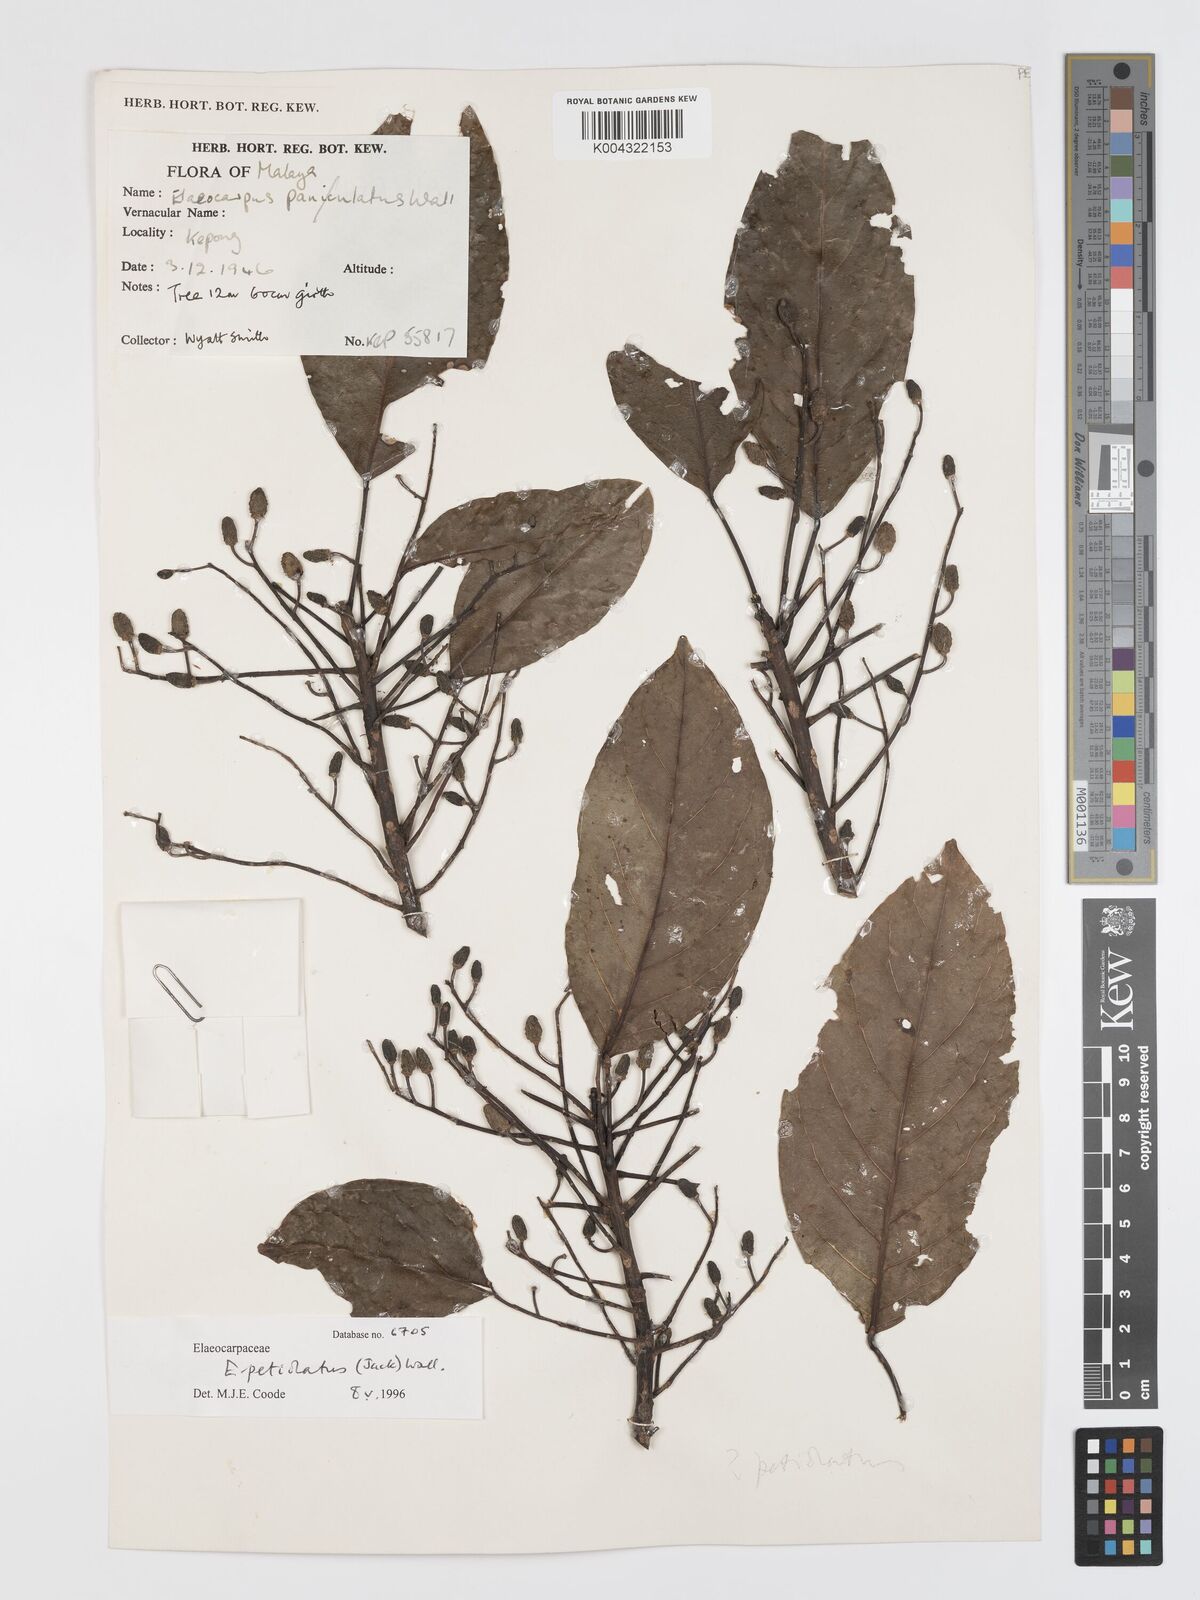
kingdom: Plantae
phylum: Tracheophyta
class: Magnoliopsida
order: Oxalidales
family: Elaeocarpaceae
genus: Elaeocarpus
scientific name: Elaeocarpus
